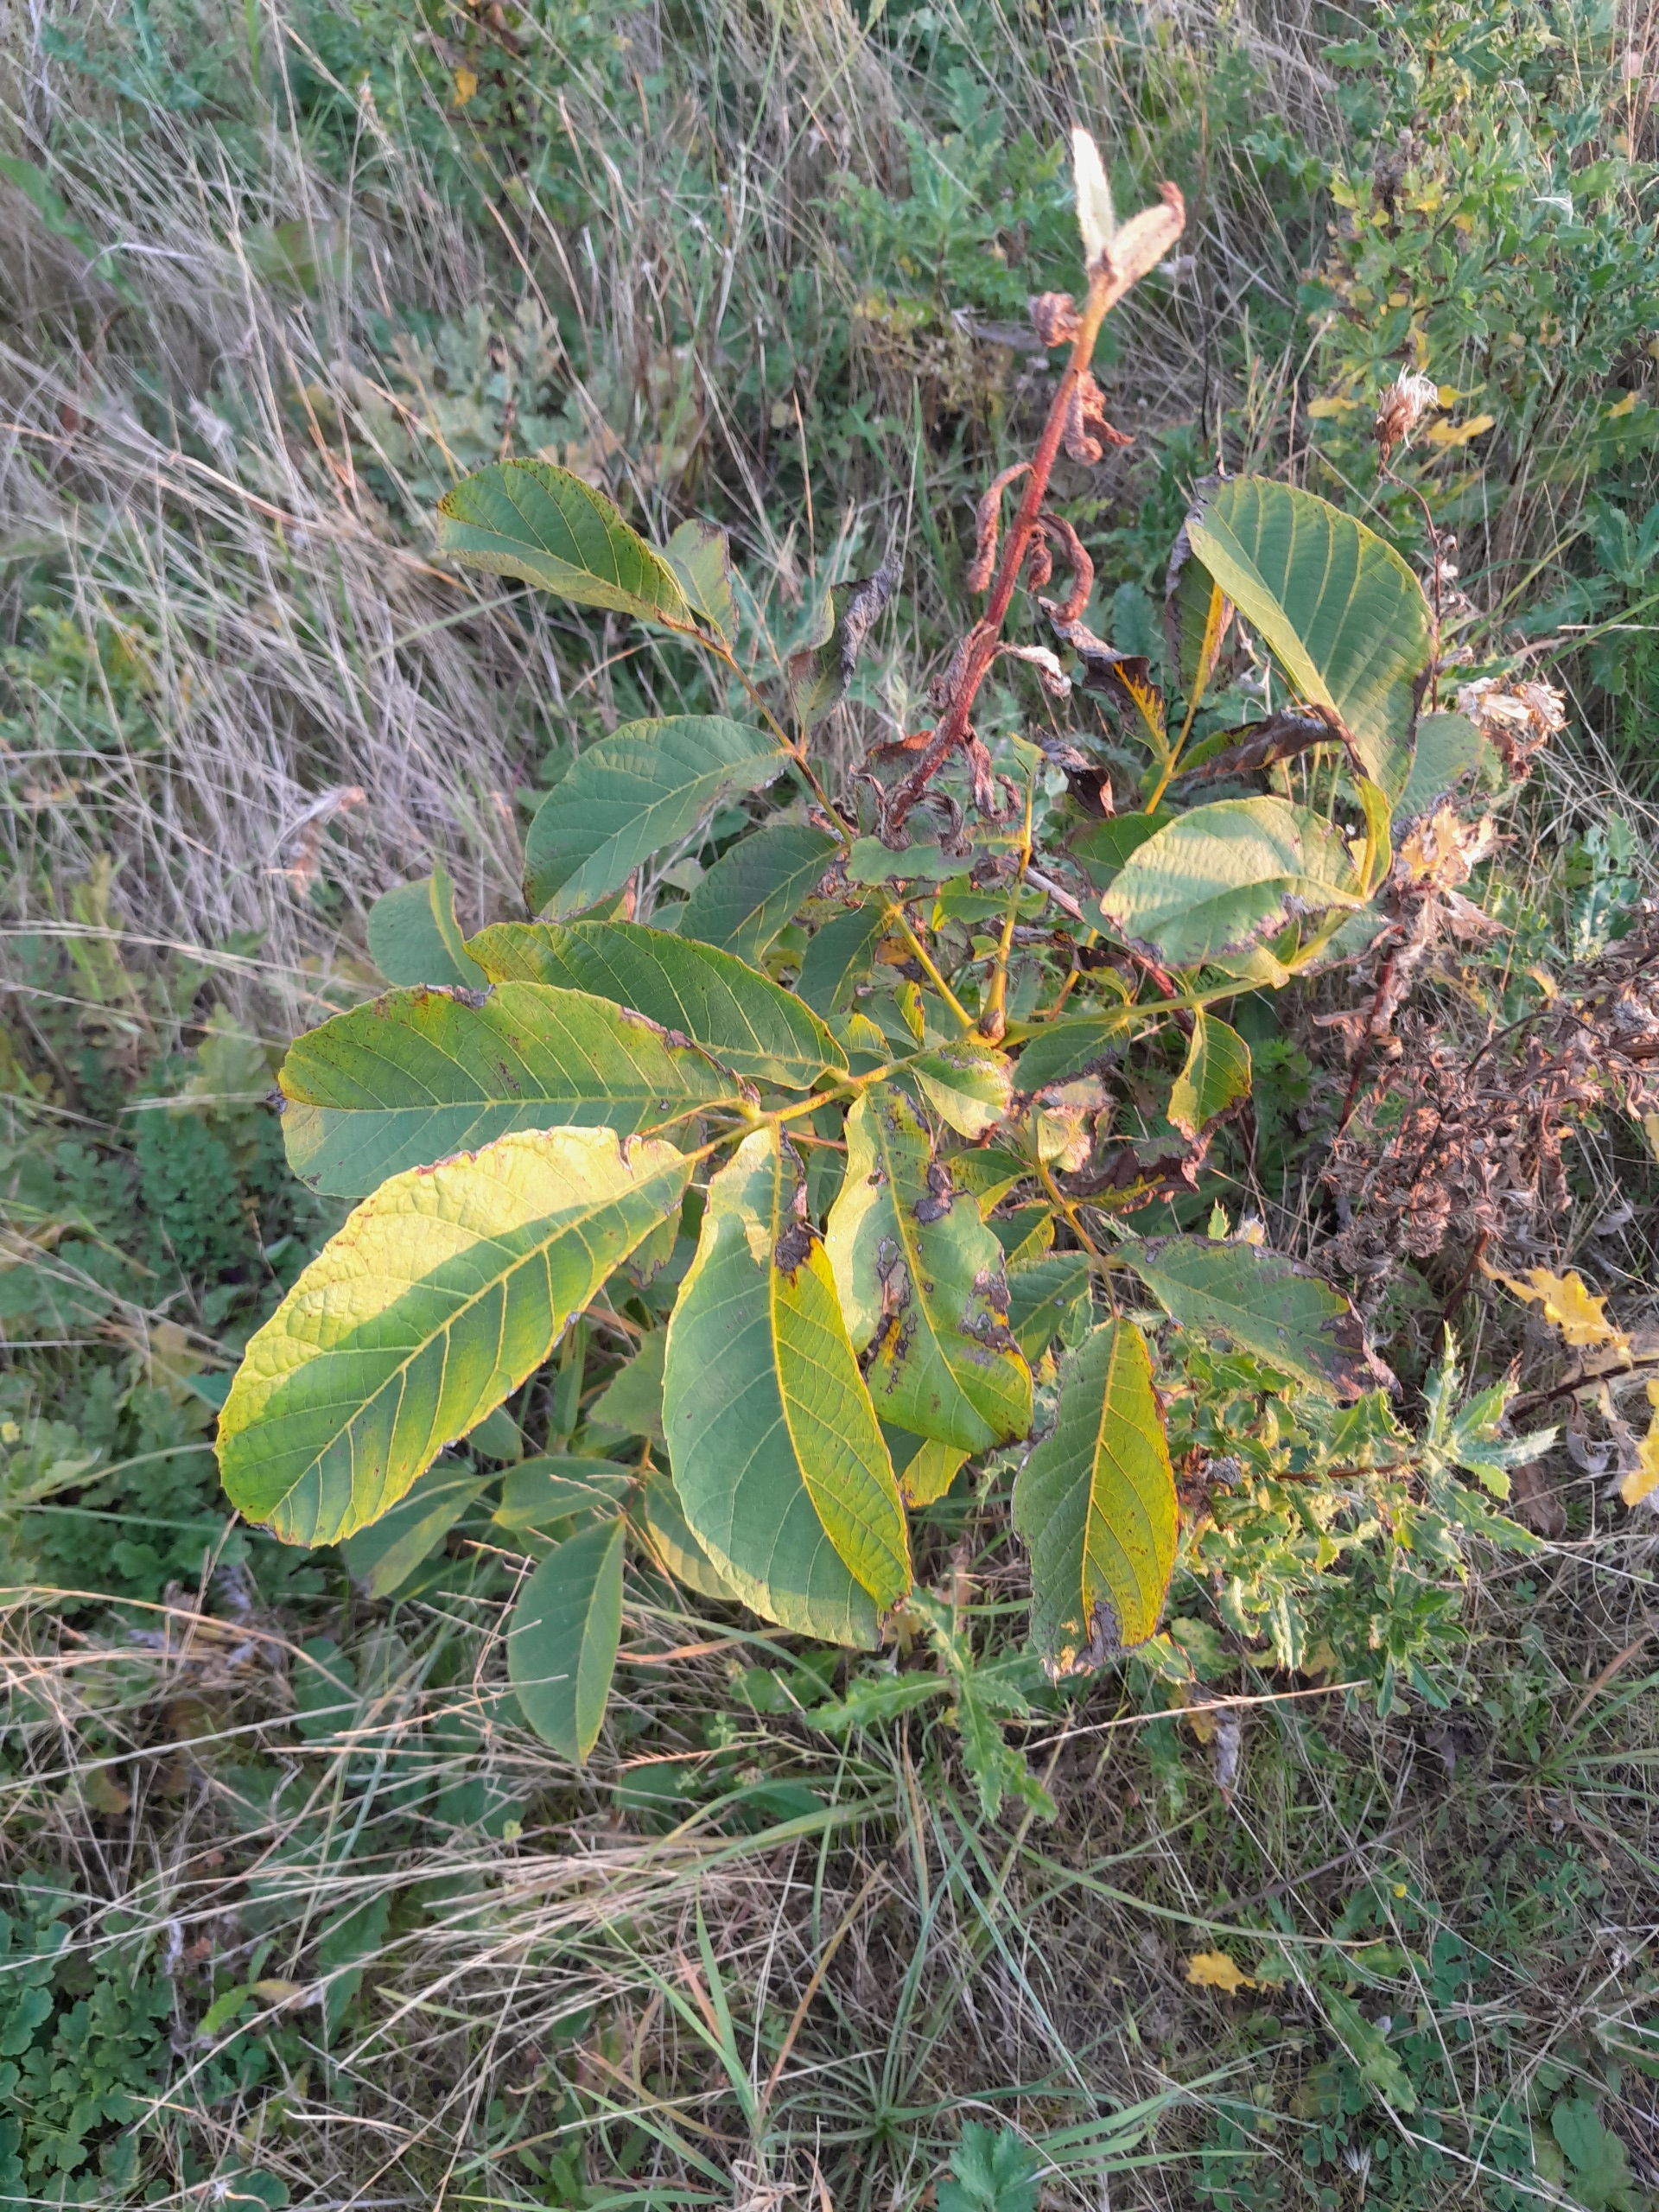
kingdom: Plantae
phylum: Tracheophyta
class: Magnoliopsida
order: Fagales
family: Juglandaceae
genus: Juglans
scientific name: Juglans regia
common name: Almindelig valnød
